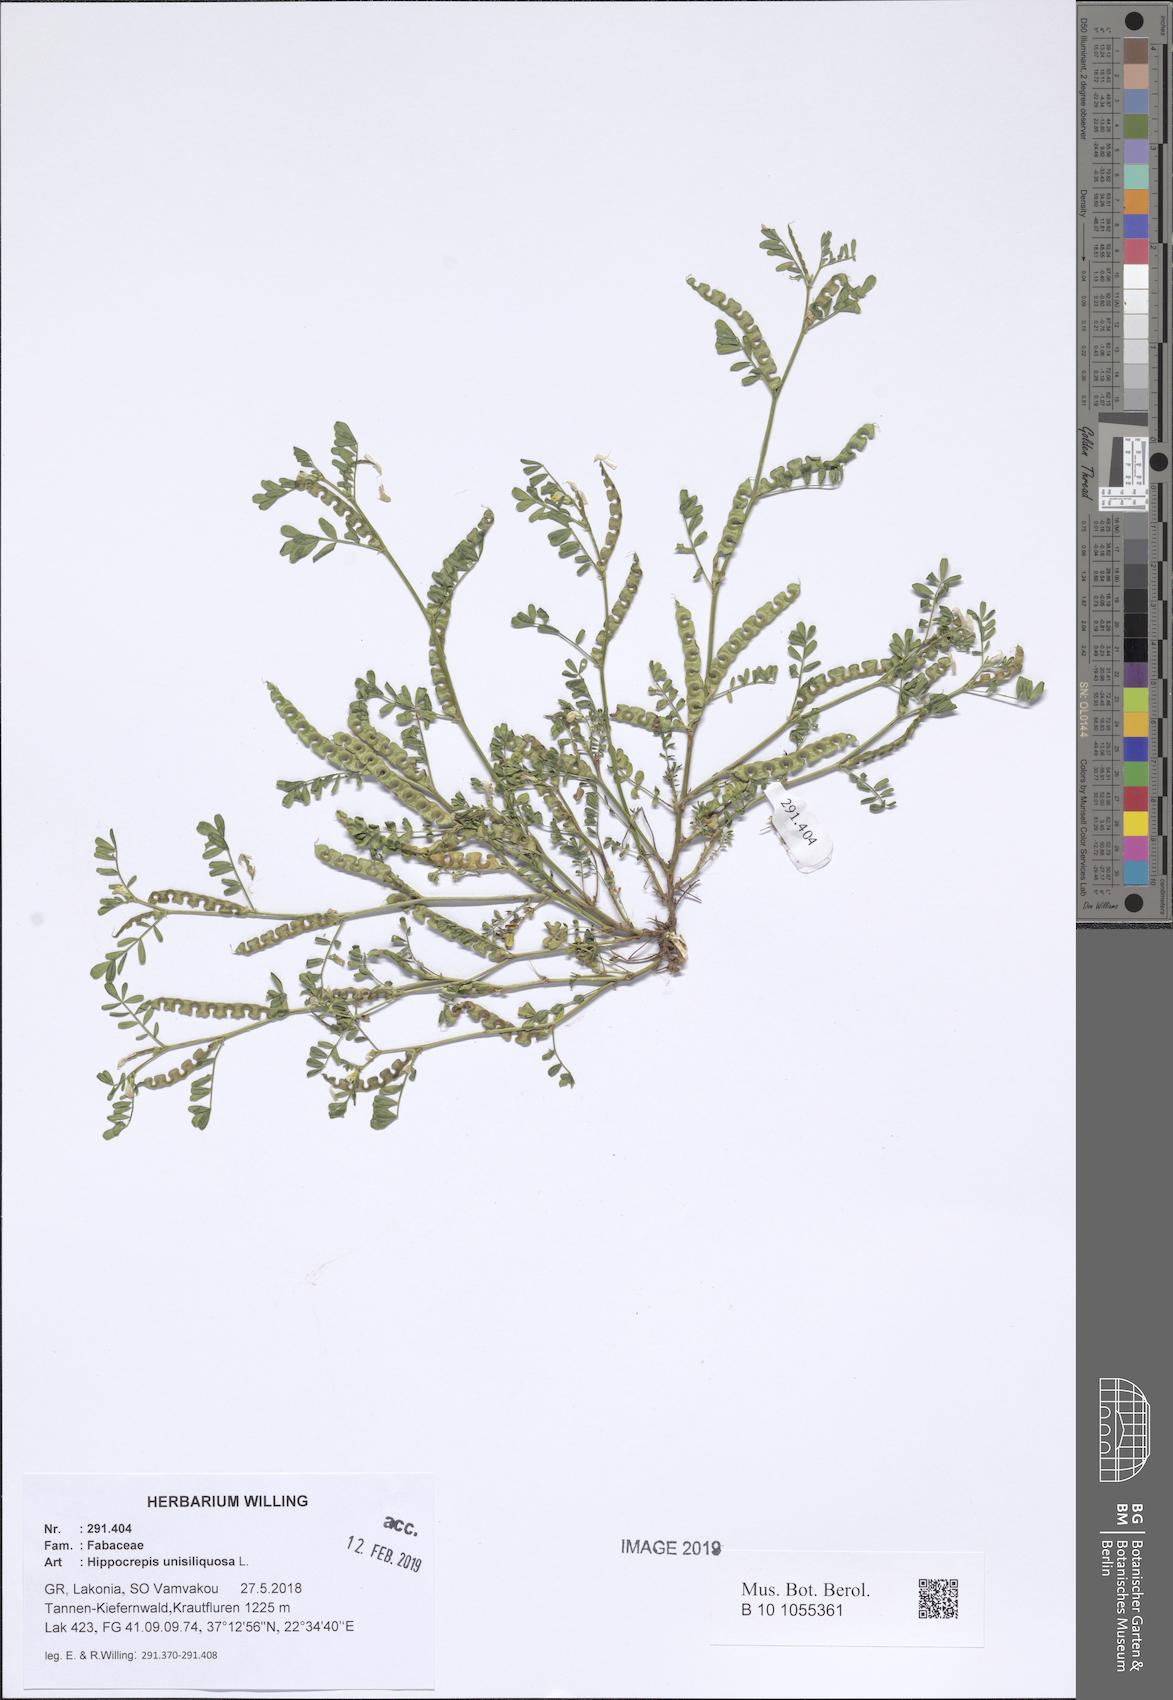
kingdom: Plantae
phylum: Tracheophyta
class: Magnoliopsida
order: Fabales
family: Fabaceae
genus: Hippocrepis
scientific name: Hippocrepis unisiliquosa
